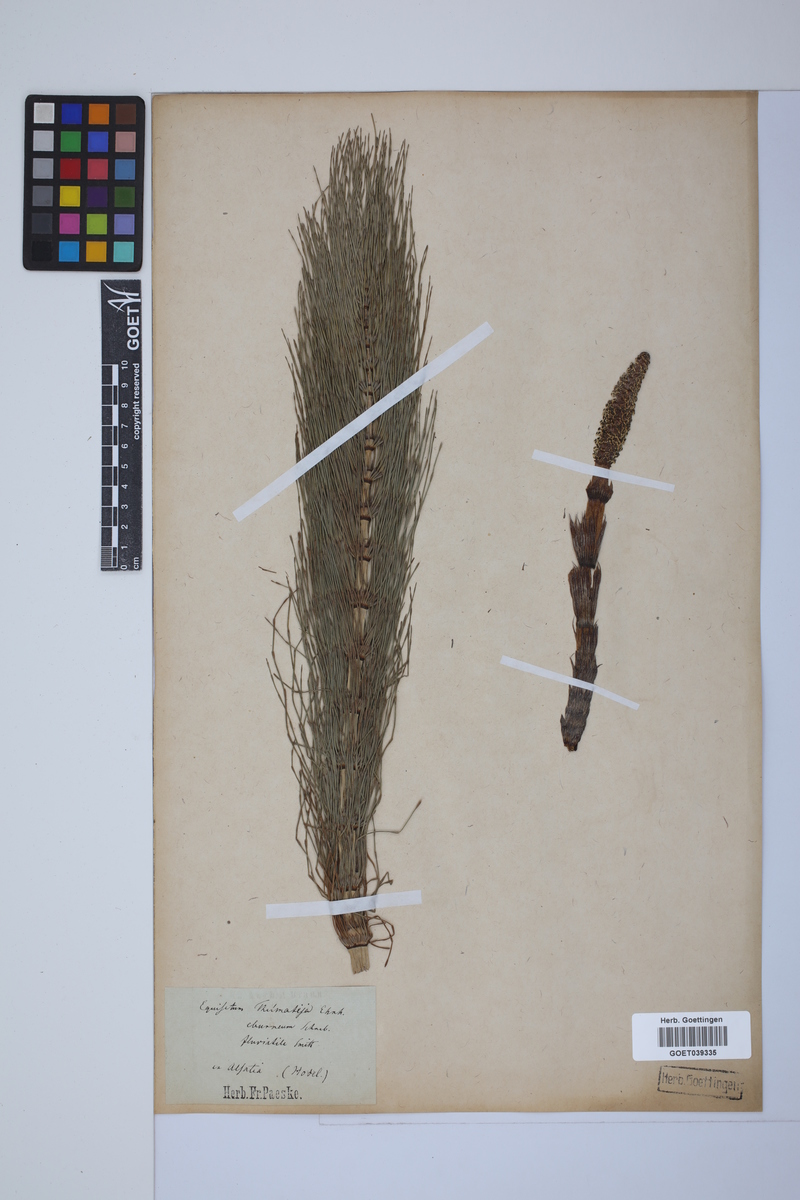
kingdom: Plantae
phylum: Tracheophyta
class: Polypodiopsida
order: Equisetales
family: Equisetaceae
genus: Equisetum
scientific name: Equisetum telmateia
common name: Great horsetail
